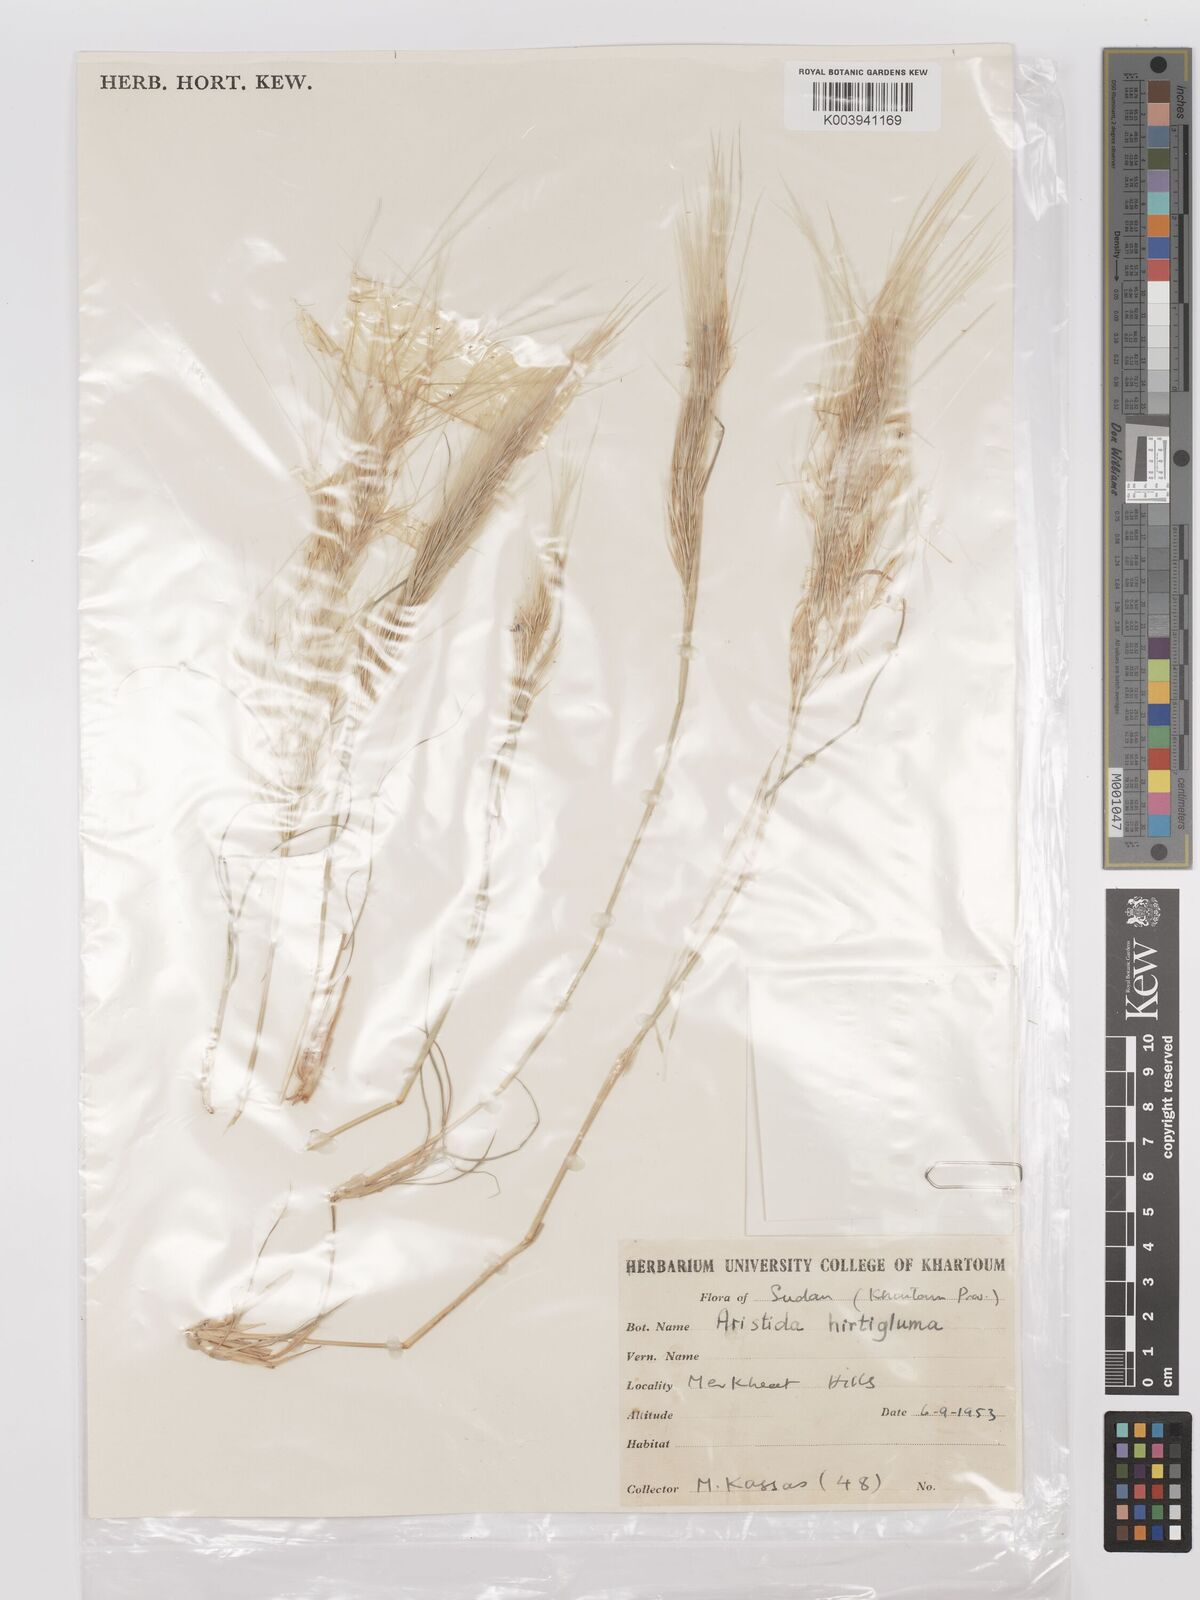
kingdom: Plantae
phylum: Tracheophyta
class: Liliopsida
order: Poales
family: Poaceae
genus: Stipagrostis
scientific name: Stipagrostis hirtigluma
